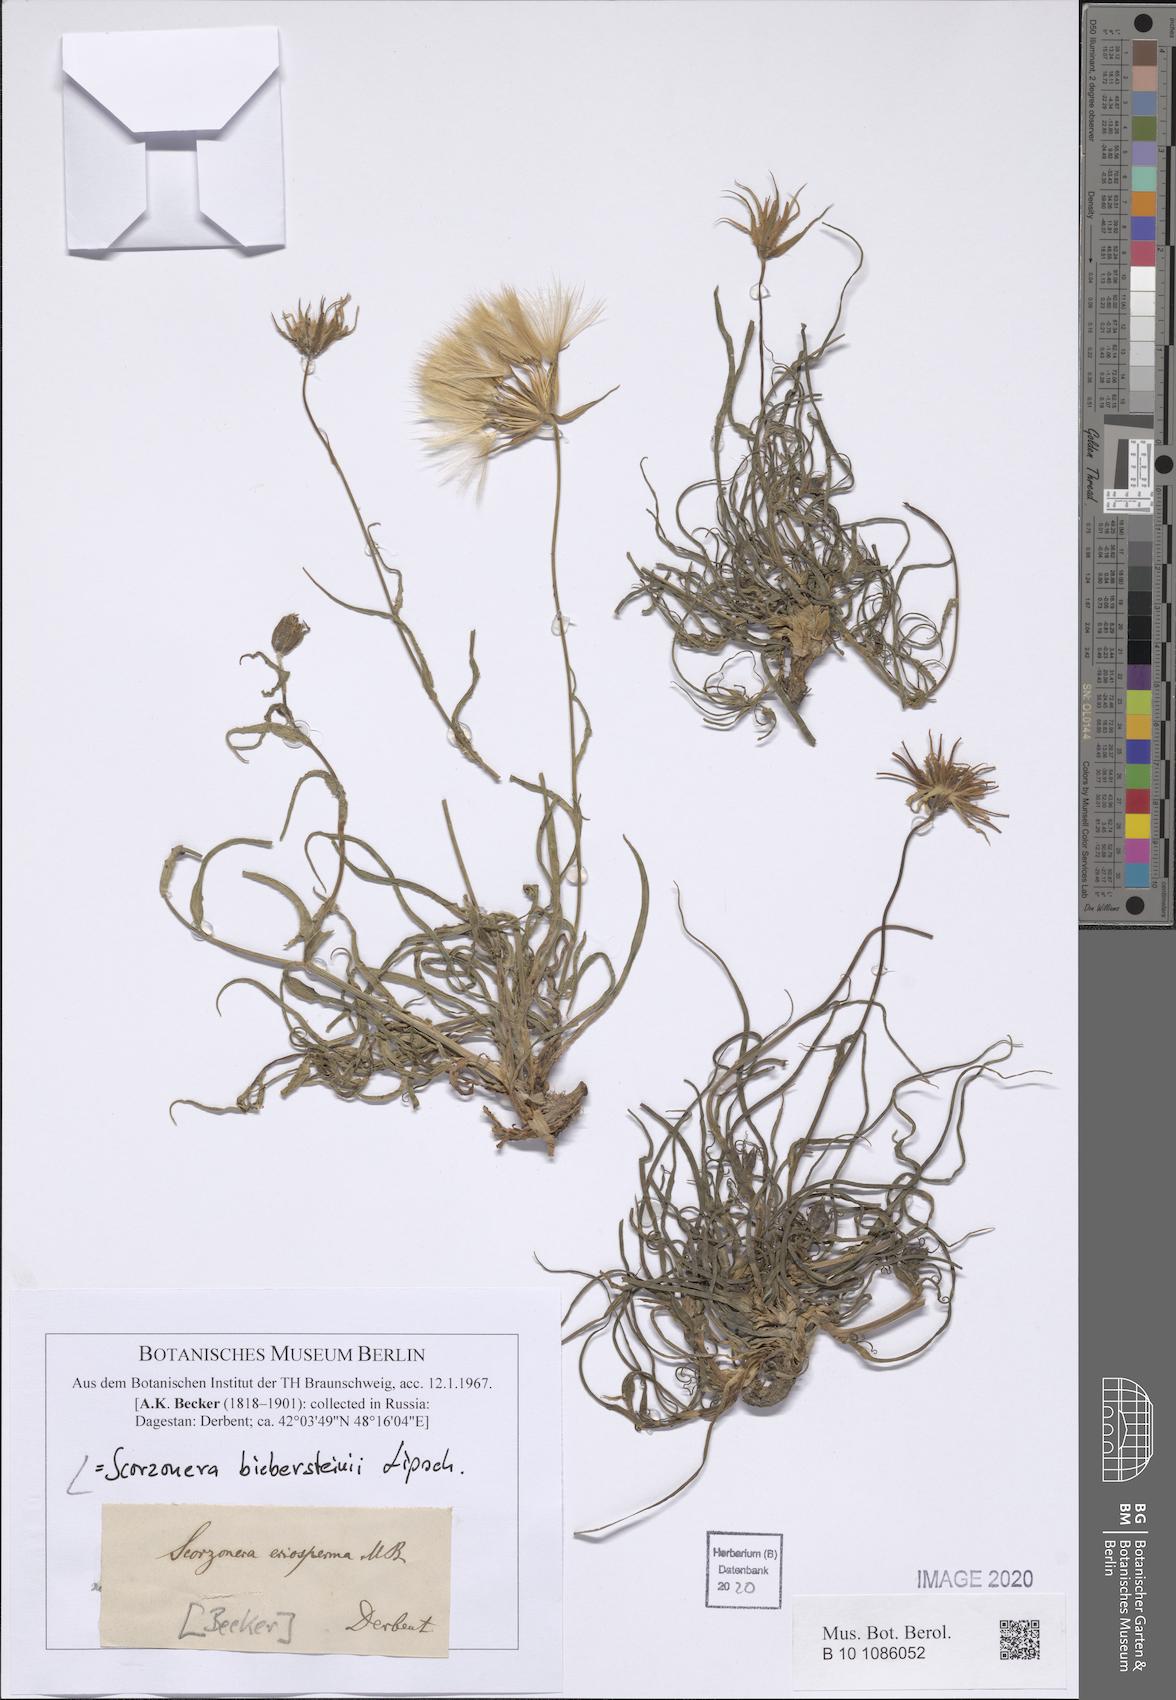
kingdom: Plantae
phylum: Tracheophyta
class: Magnoliopsida
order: Asterales
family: Asteraceae
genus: Gelasia
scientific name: Gelasia biebersteinii
